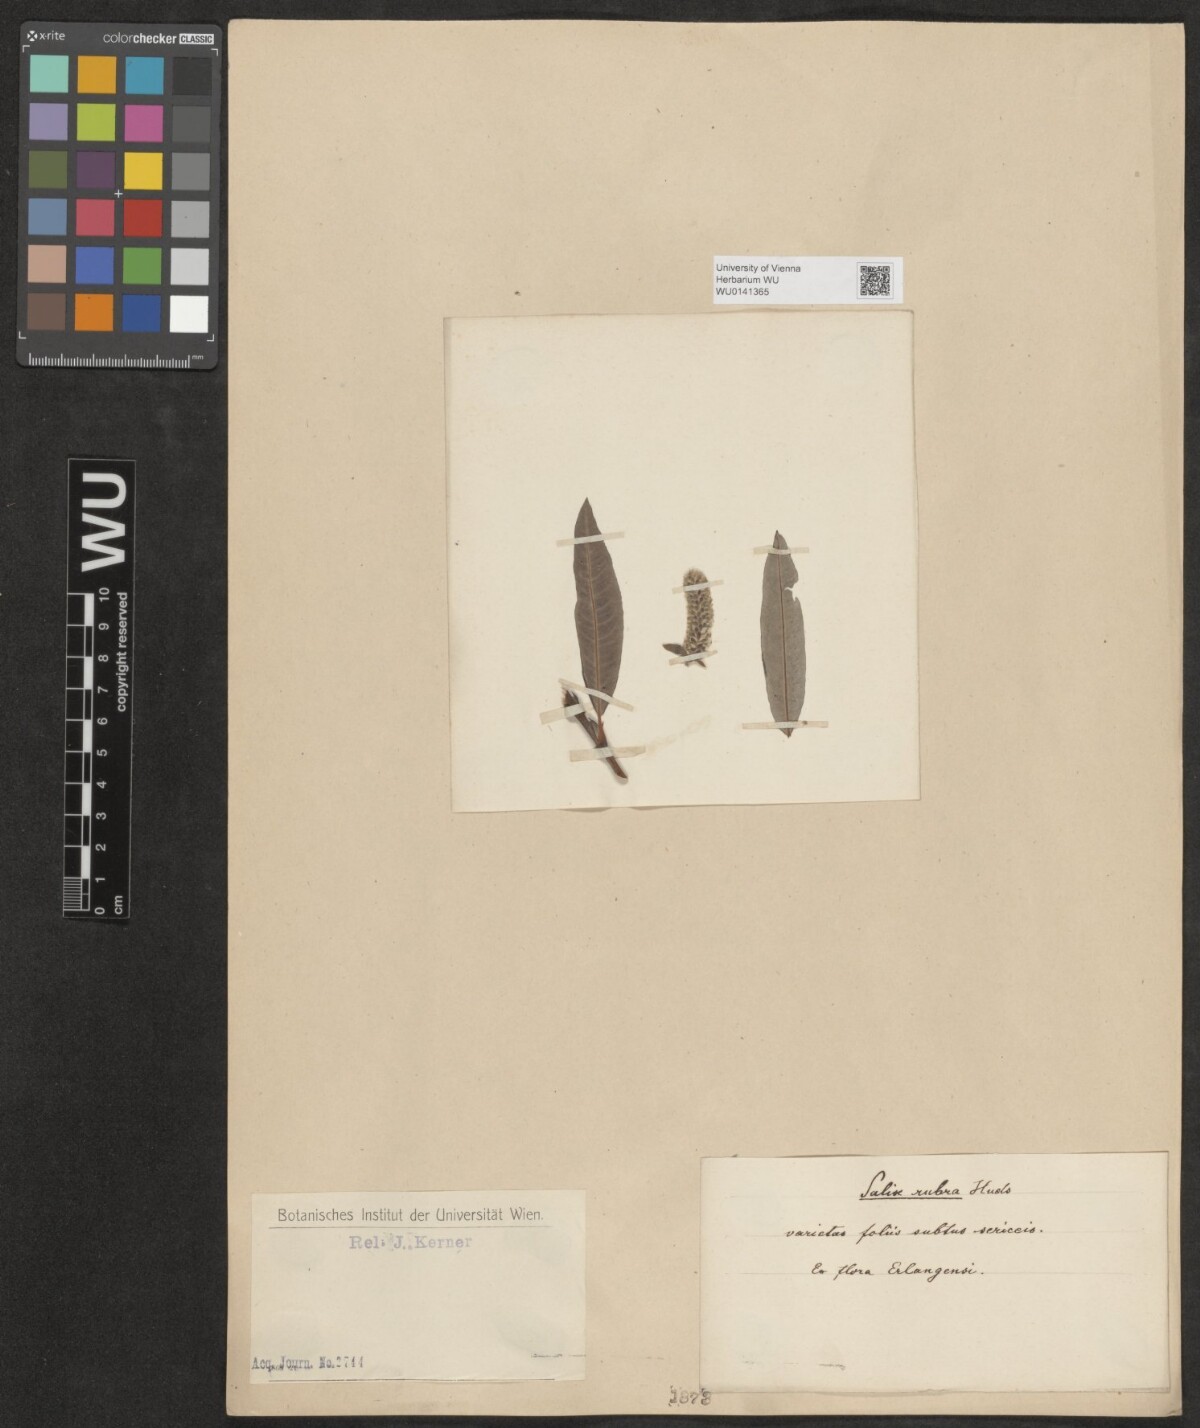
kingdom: Plantae
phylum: Tracheophyta
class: Magnoliopsida
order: Malpighiales
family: Salicaceae
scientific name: Salicaceae
